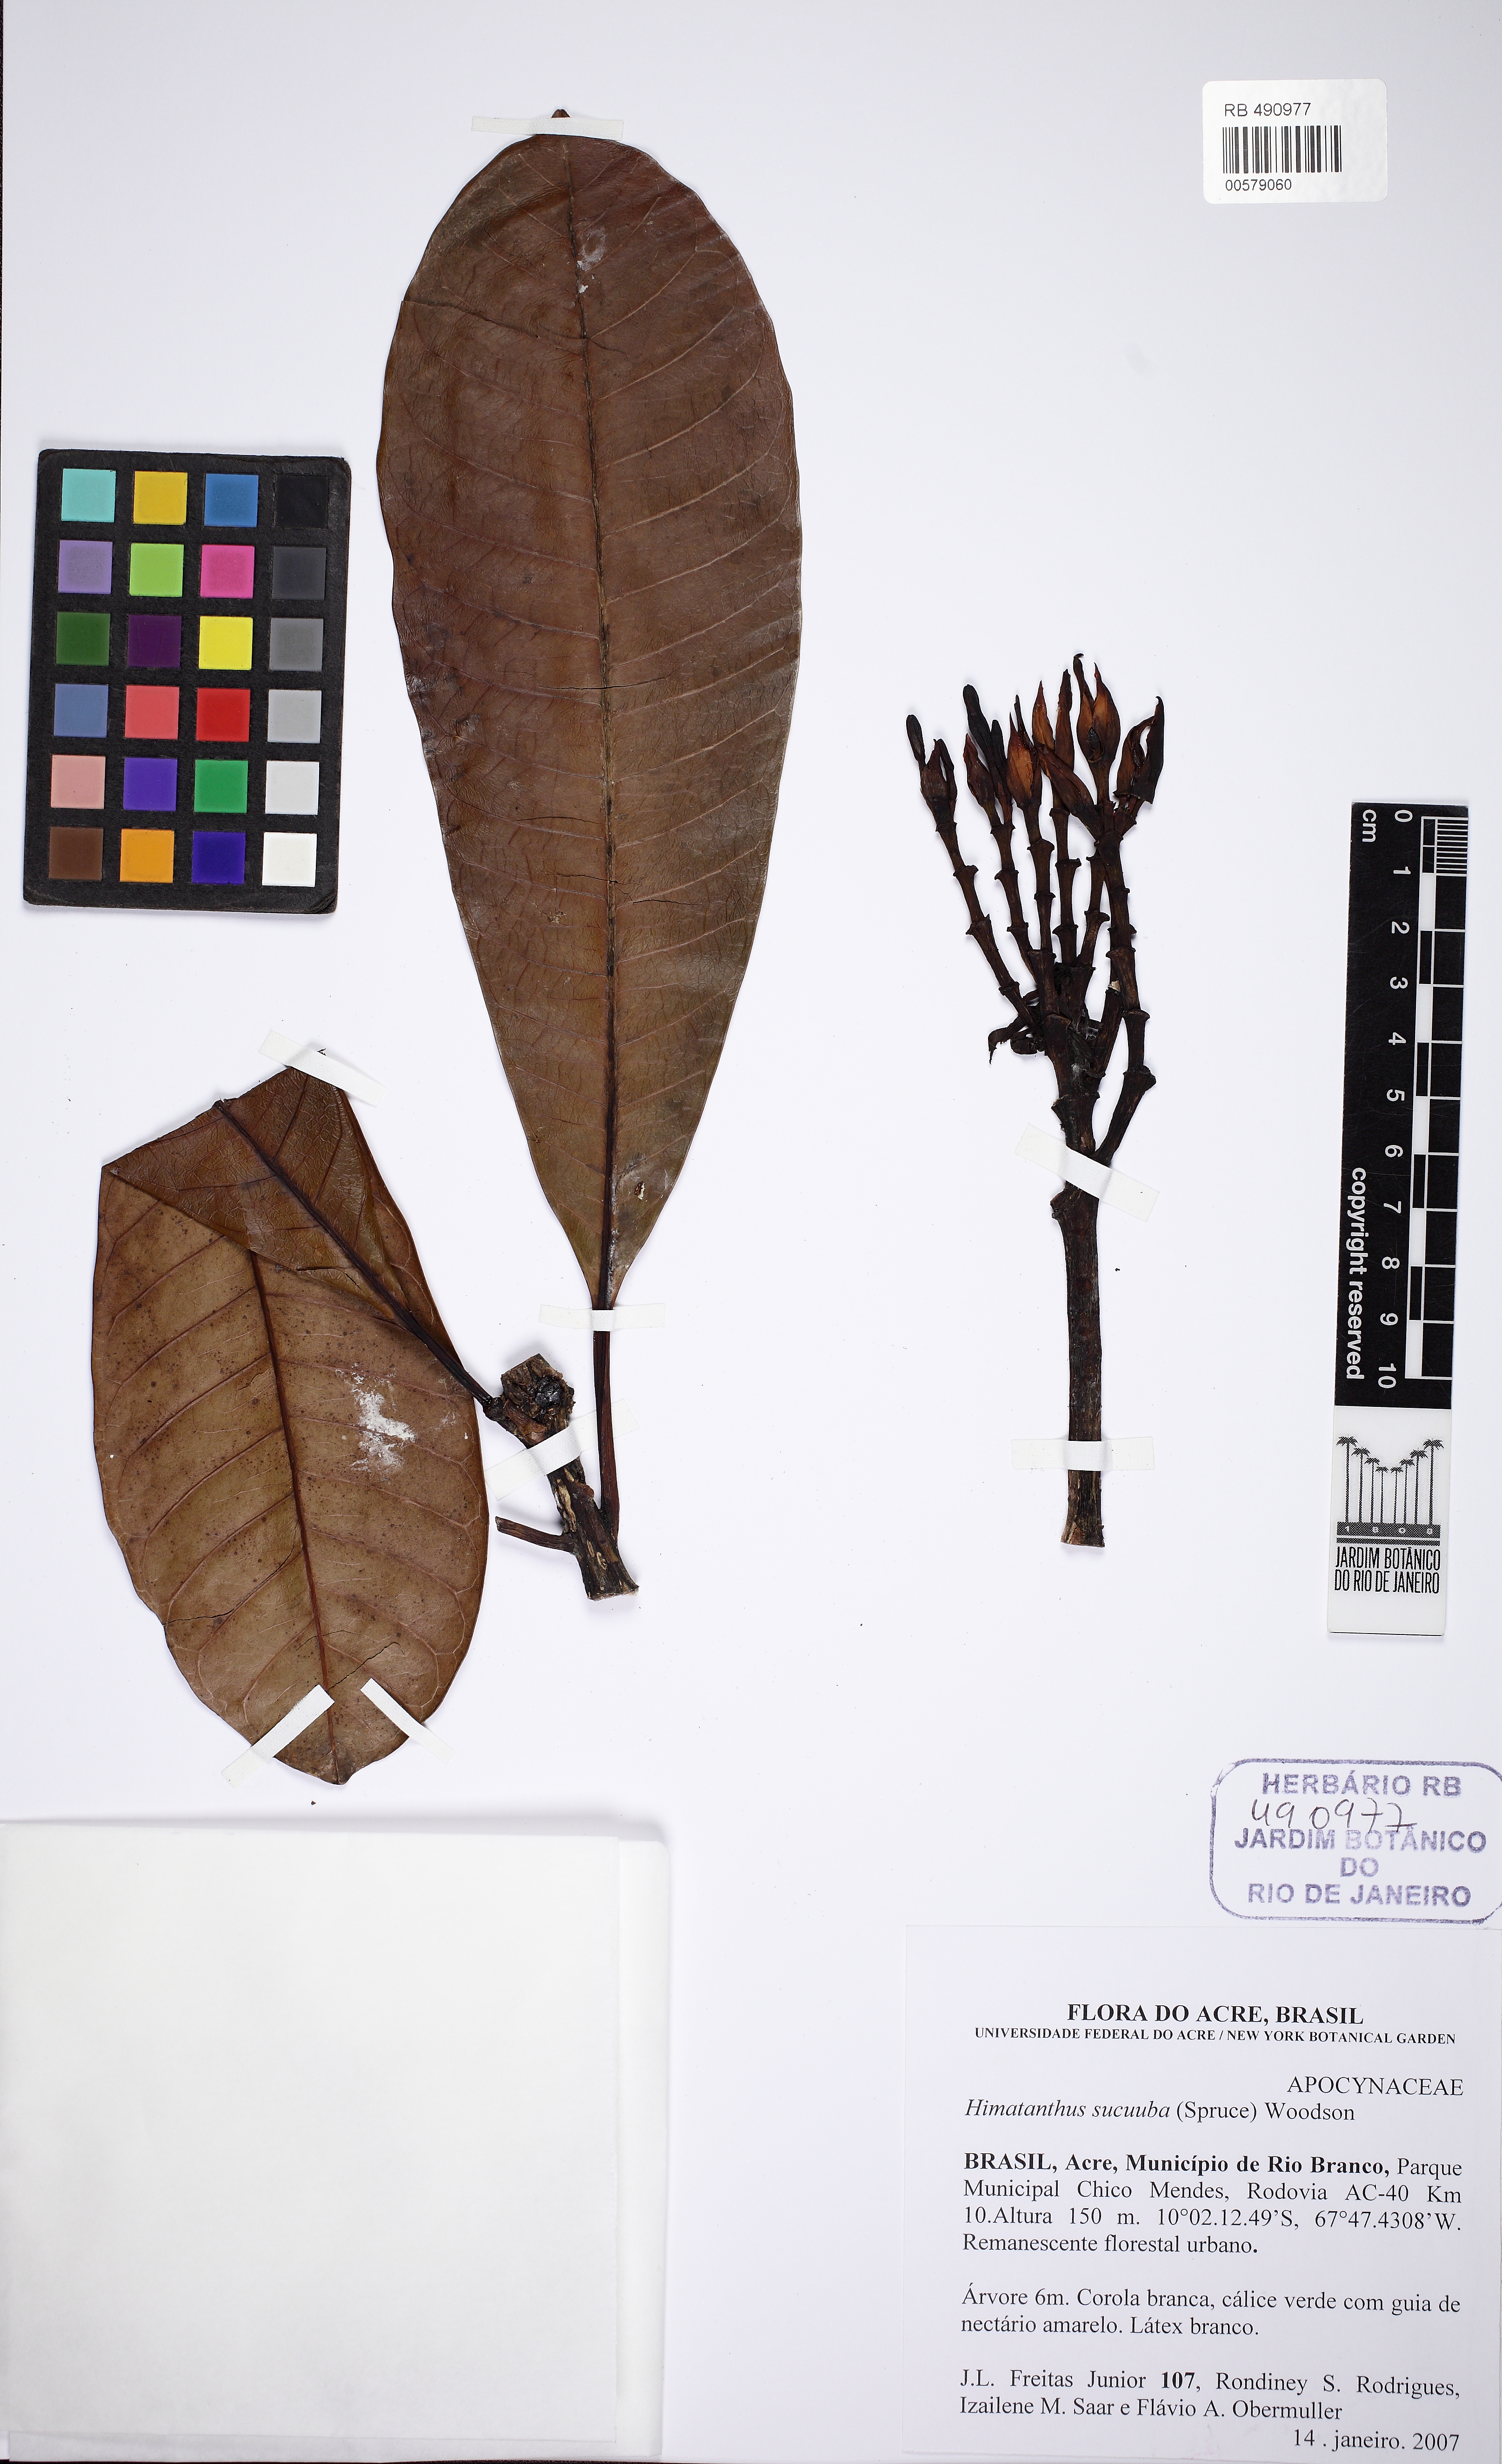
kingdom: Plantae
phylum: Tracheophyta
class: Magnoliopsida
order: Gentianales
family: Apocynaceae
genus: Himatanthus
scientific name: Himatanthus articulatus
